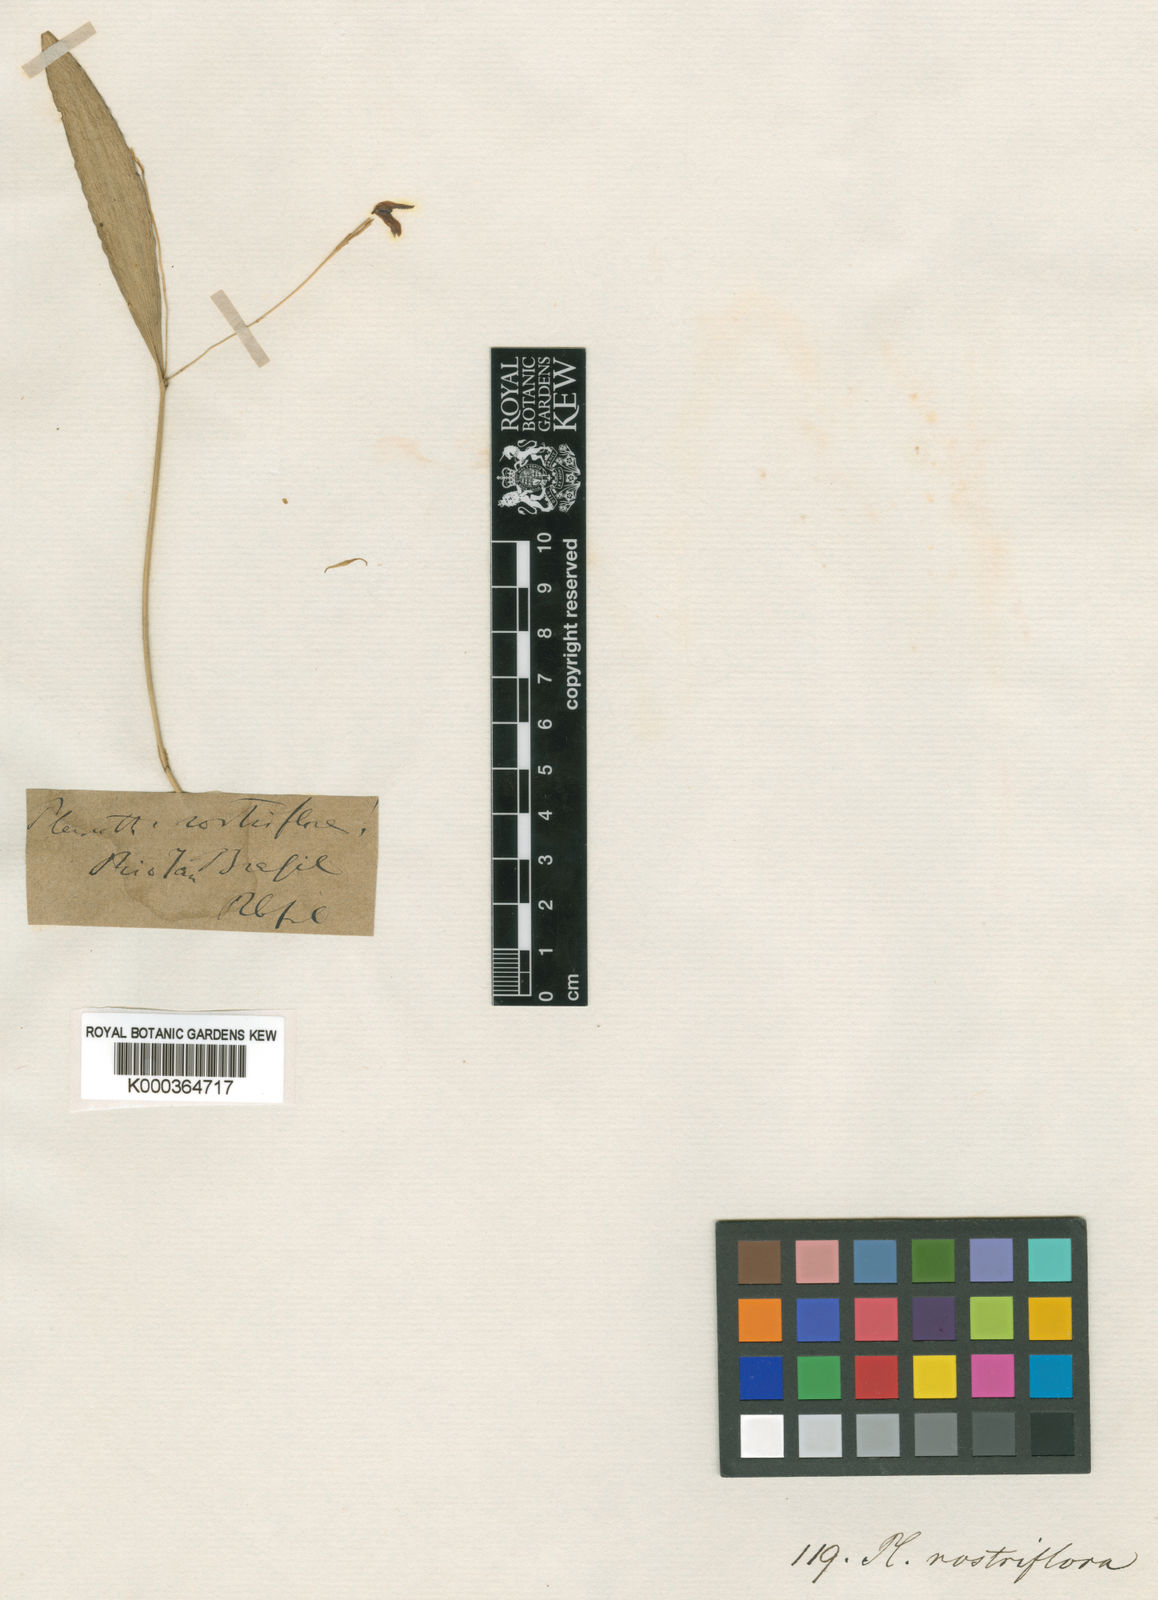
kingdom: Plantae
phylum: Tracheophyta
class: Liliopsida
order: Asparagales
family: Orchidaceae
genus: Pabstiella
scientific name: Pabstiella ephemera
